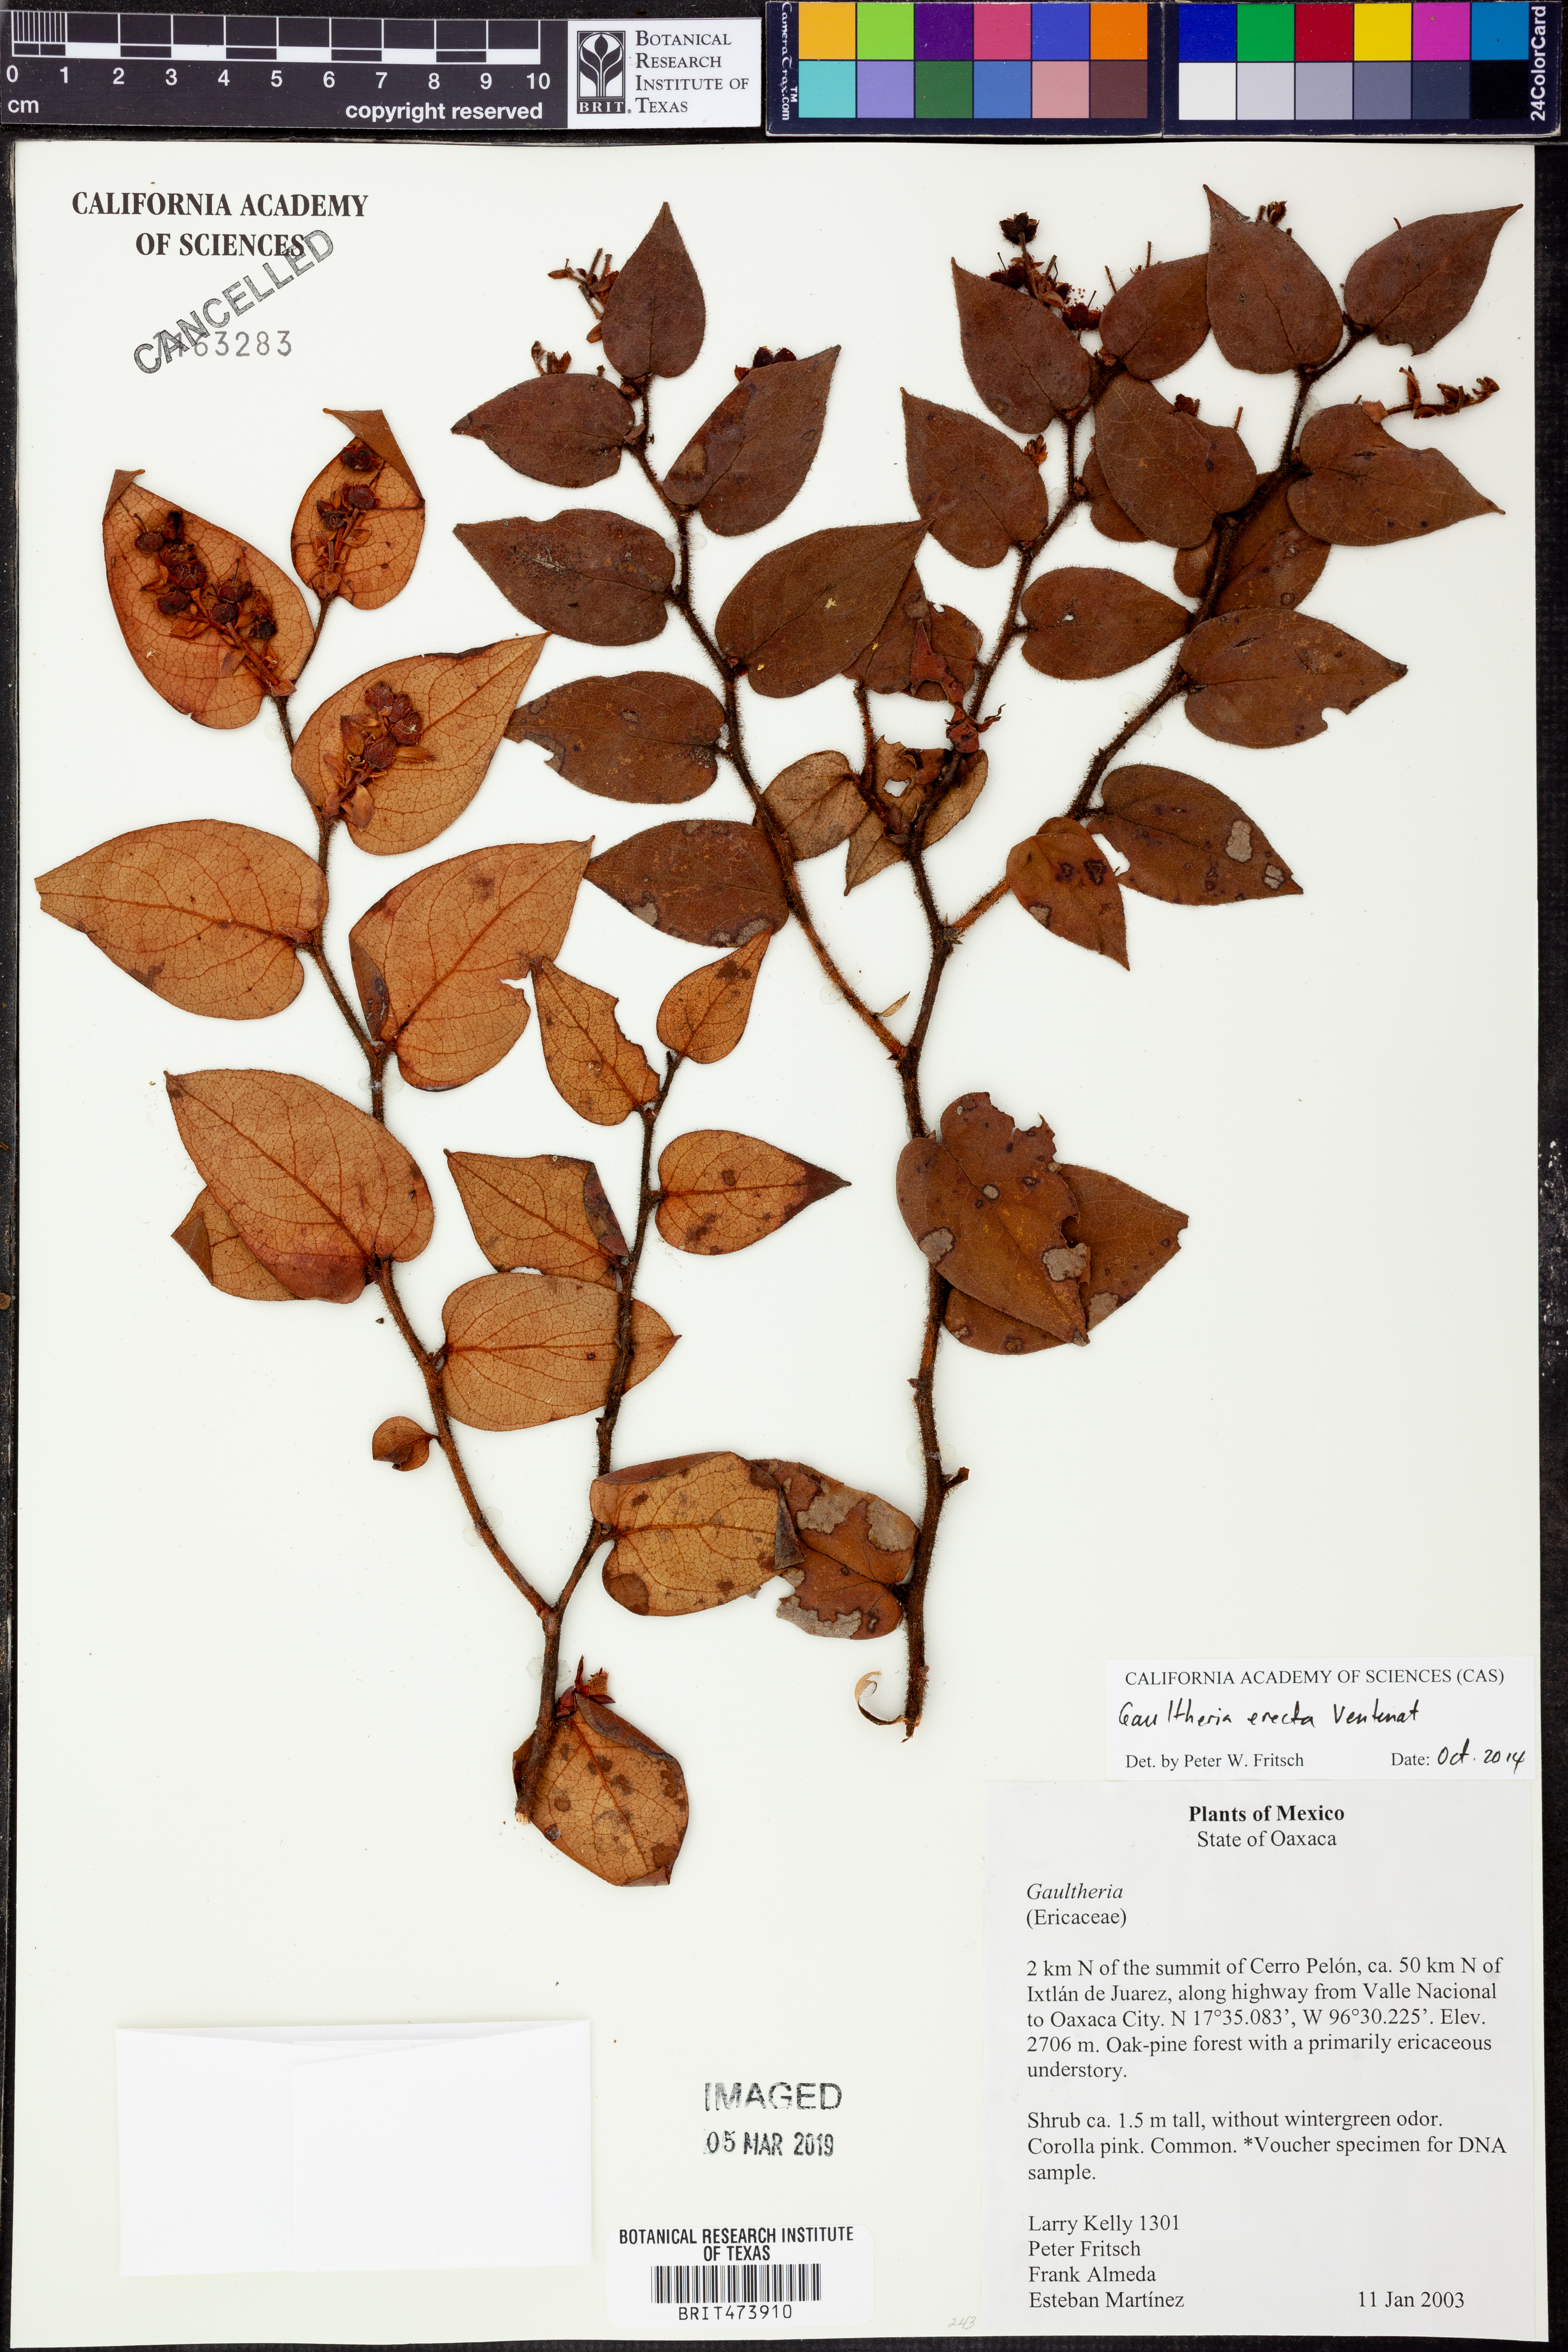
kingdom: Plantae
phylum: Tracheophyta
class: Magnoliopsida
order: Ericales
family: Ericaceae
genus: Gaultheria
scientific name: Gaultheria erecta
